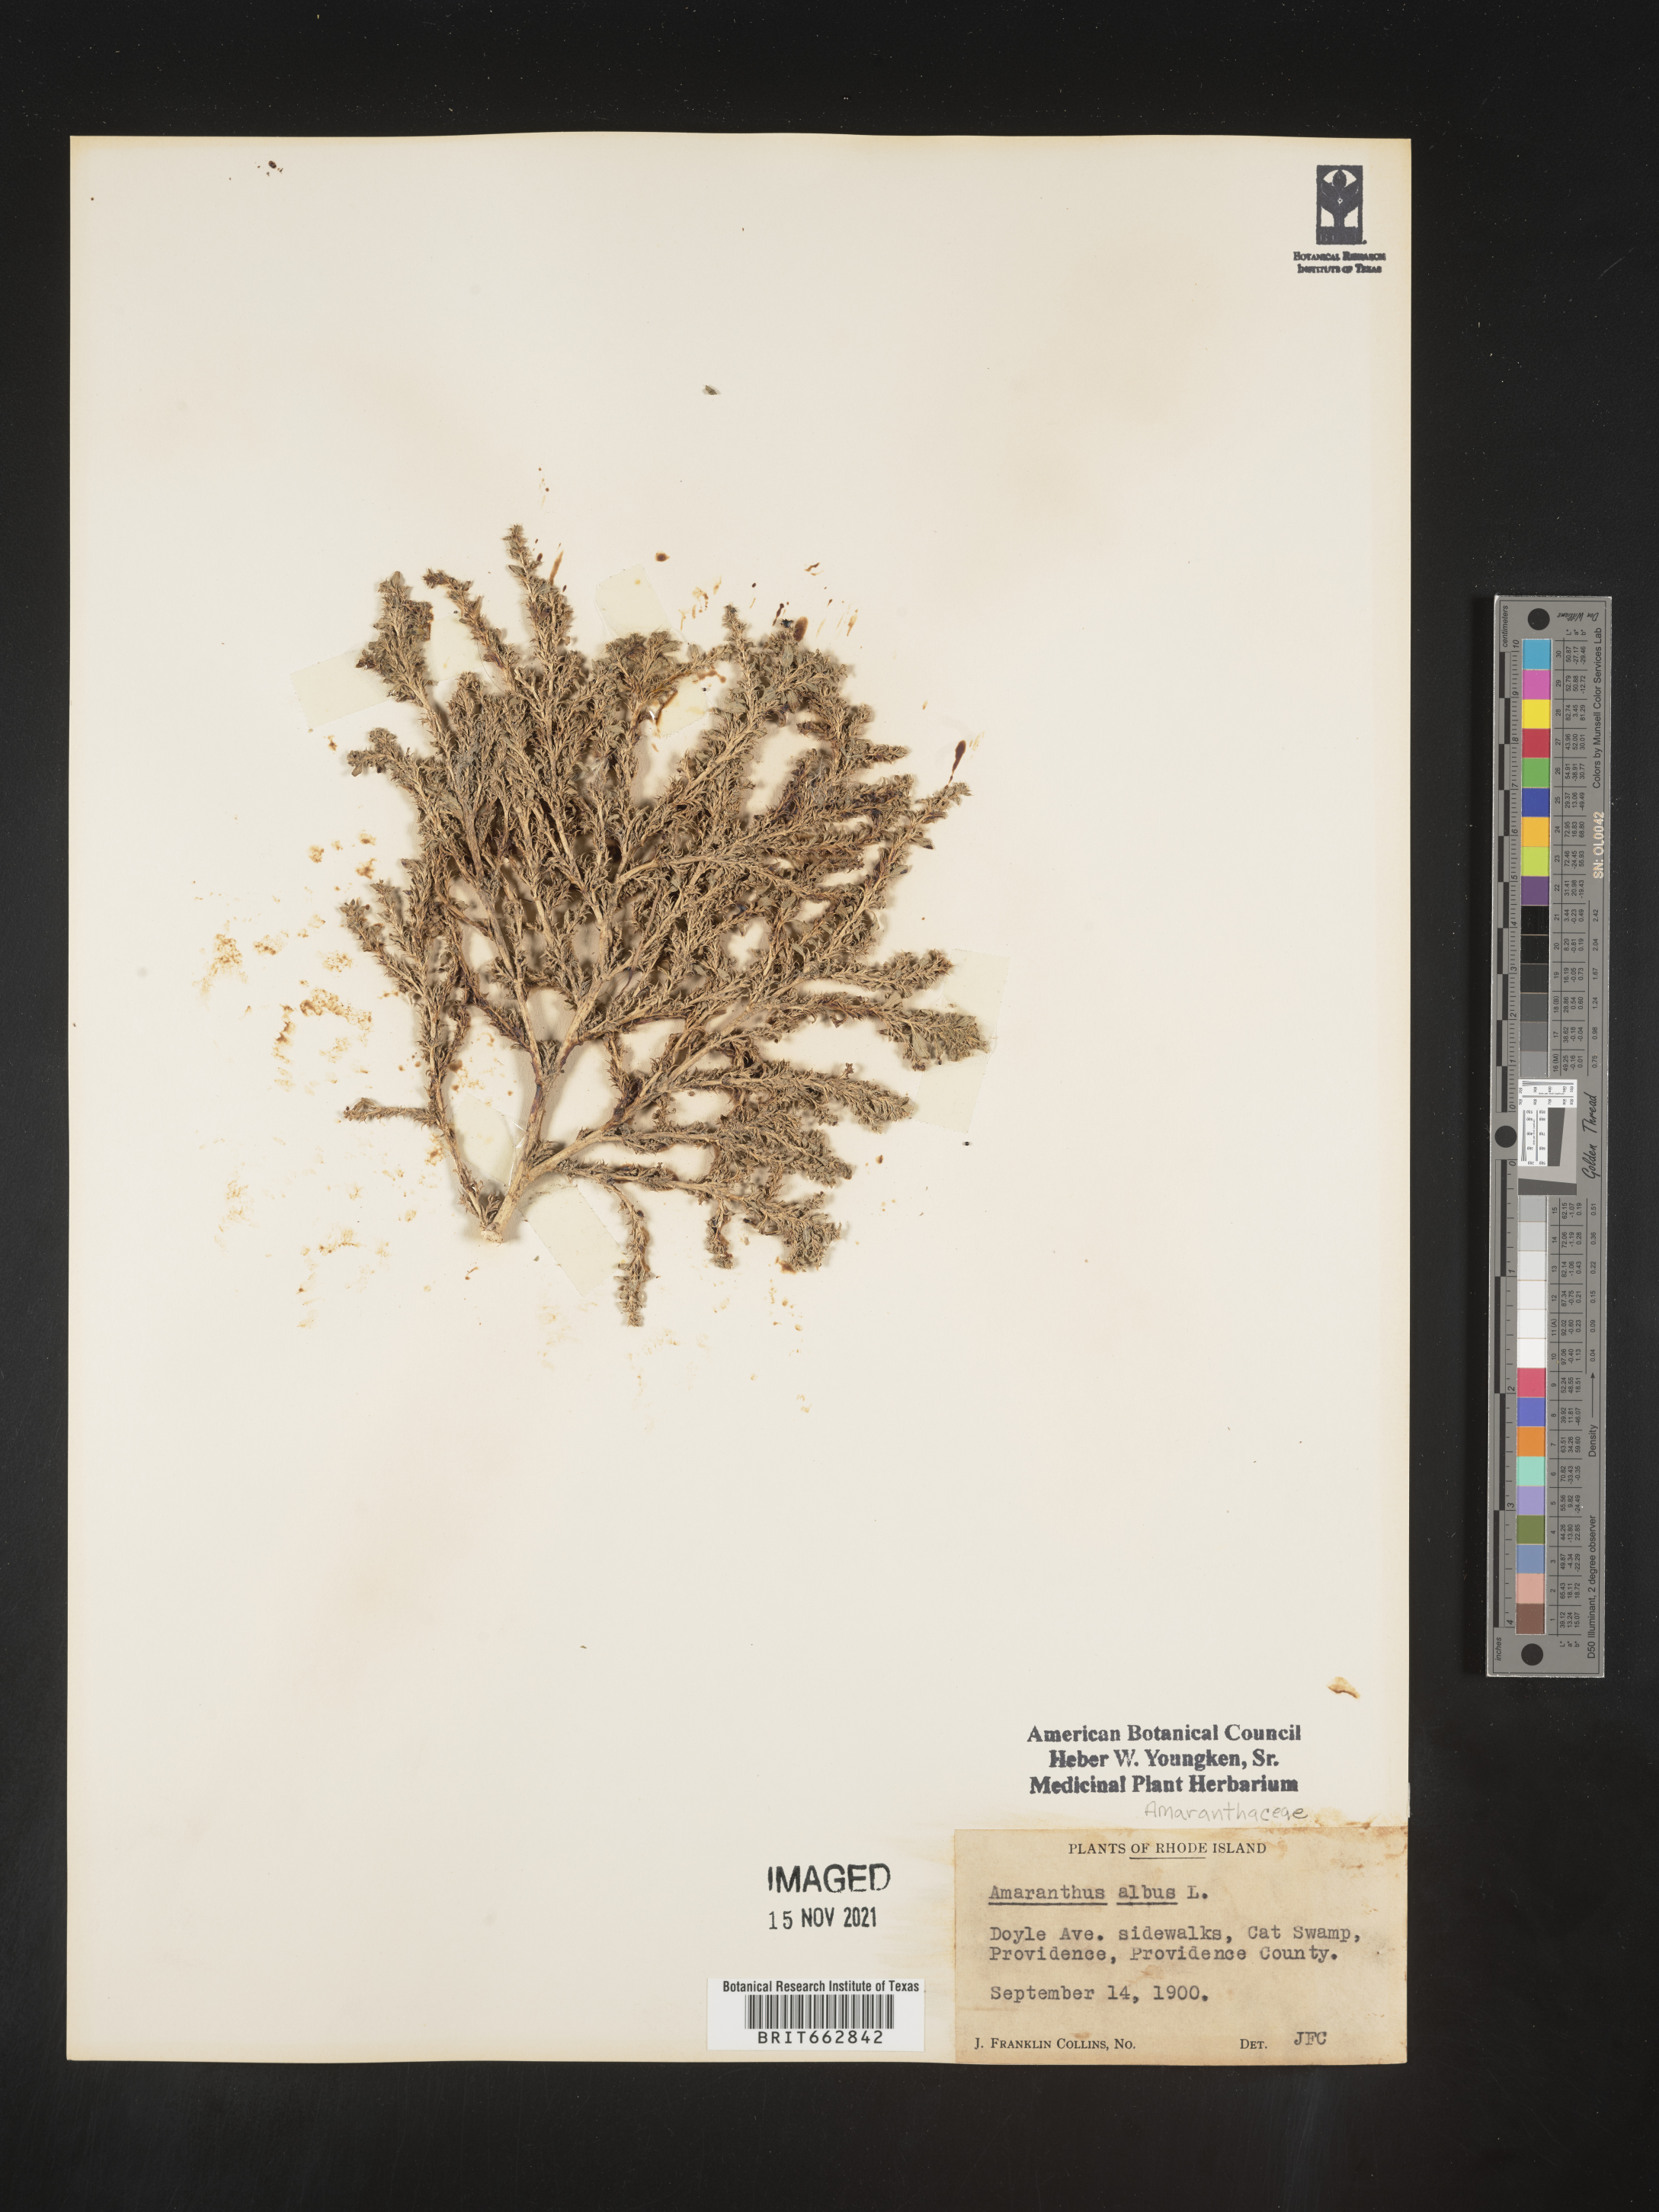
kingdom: Plantae
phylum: Tracheophyta
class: Magnoliopsida
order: Caryophyllales
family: Amaranthaceae
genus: Amaranthus
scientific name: Amaranthus albus
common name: White pigweed
